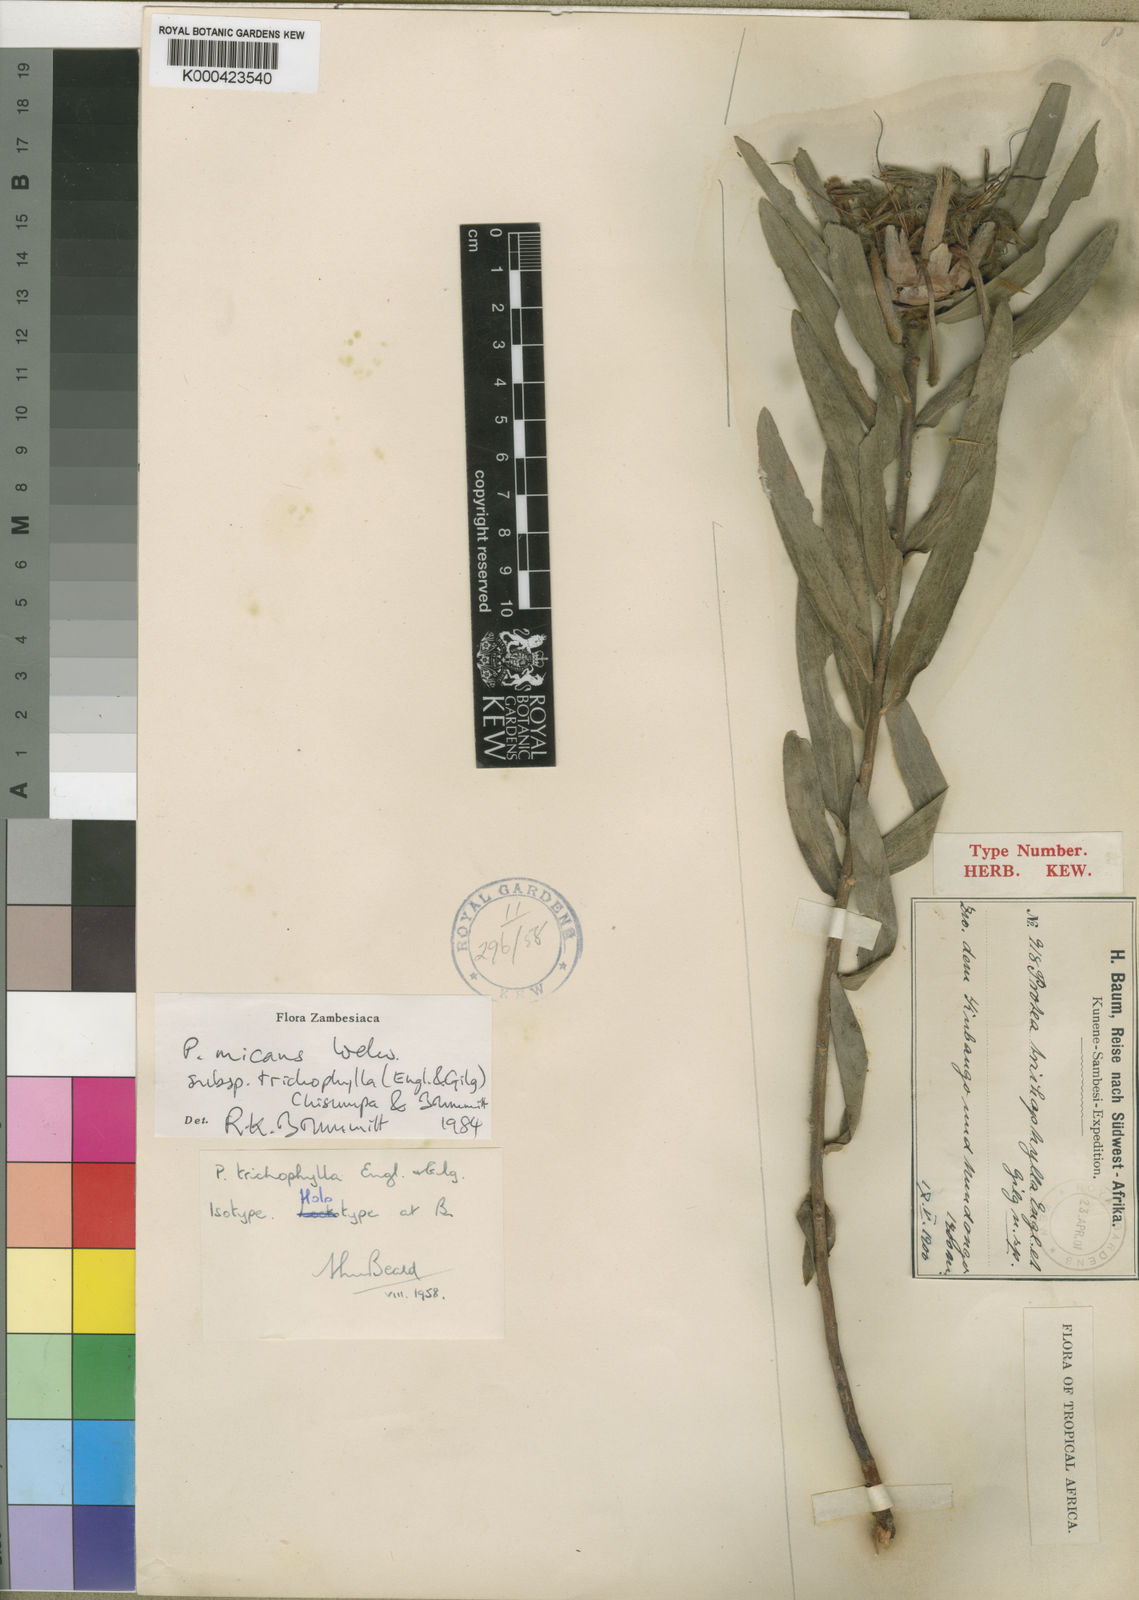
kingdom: Plantae
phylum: Tracheophyta
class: Magnoliopsida
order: Proteales
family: Proteaceae
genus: Protea
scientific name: Protea micans
